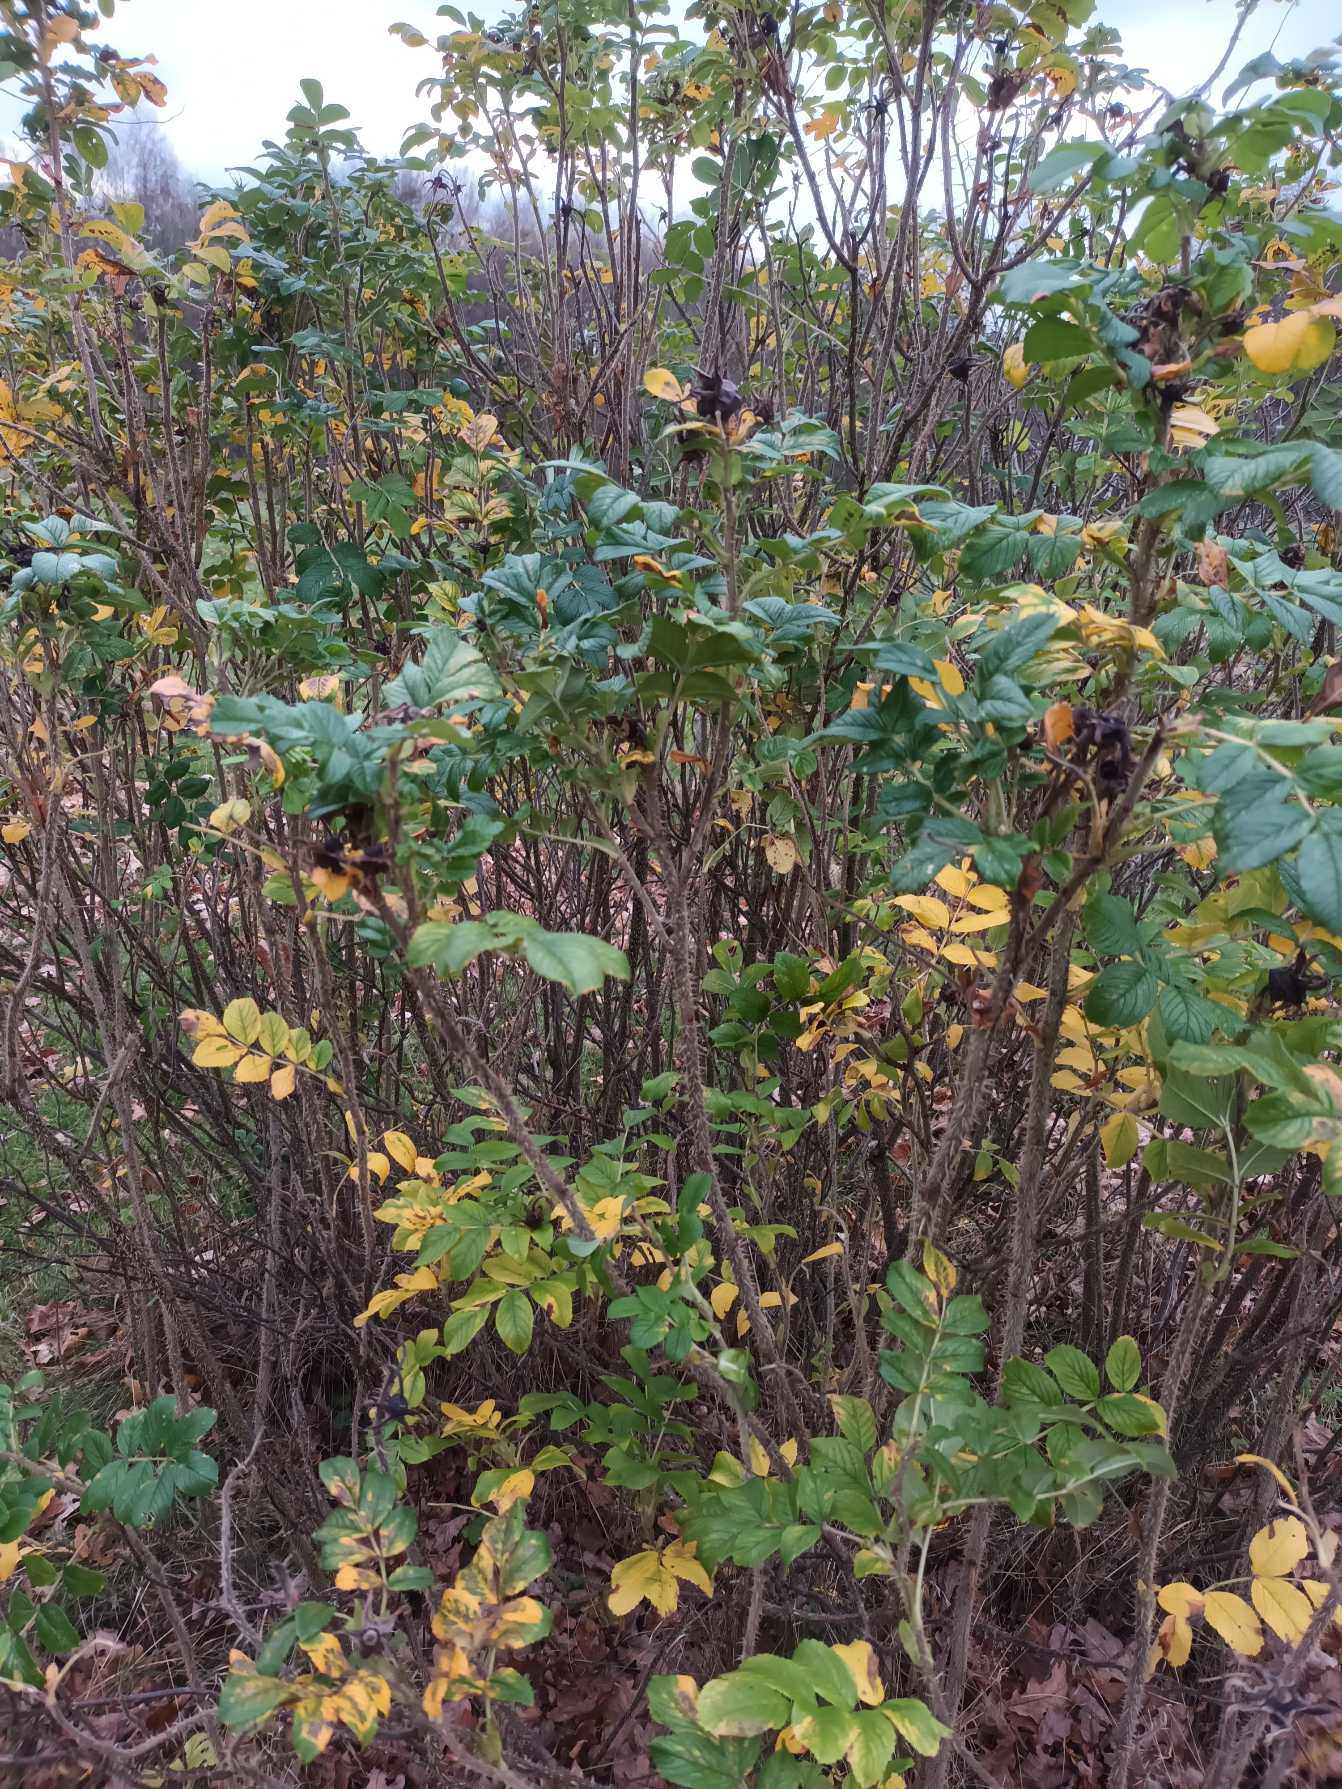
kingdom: Plantae
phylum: Tracheophyta
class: Magnoliopsida
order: Rosales
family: Rosaceae
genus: Rosa
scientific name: Rosa rugosa
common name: Rynket rose
